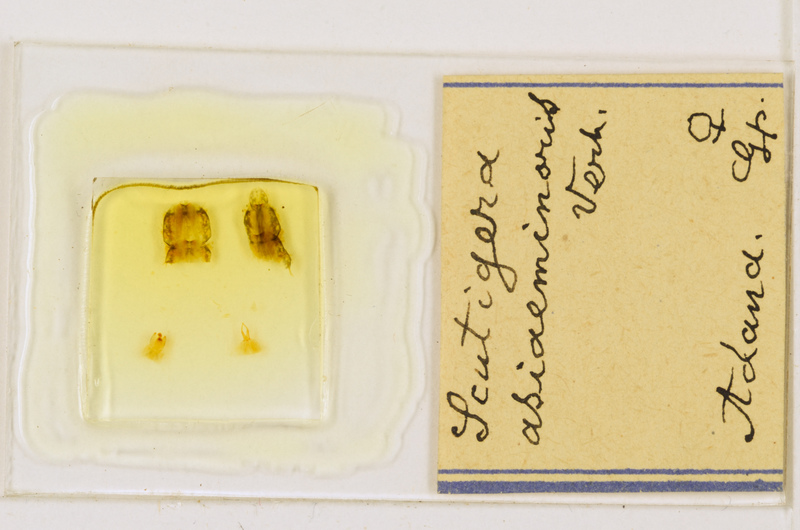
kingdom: Animalia
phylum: Arthropoda
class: Chilopoda
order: Scutigeromorpha
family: Scutigeridae
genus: Scutigera
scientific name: Scutigera coleoptrata
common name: House centipede
